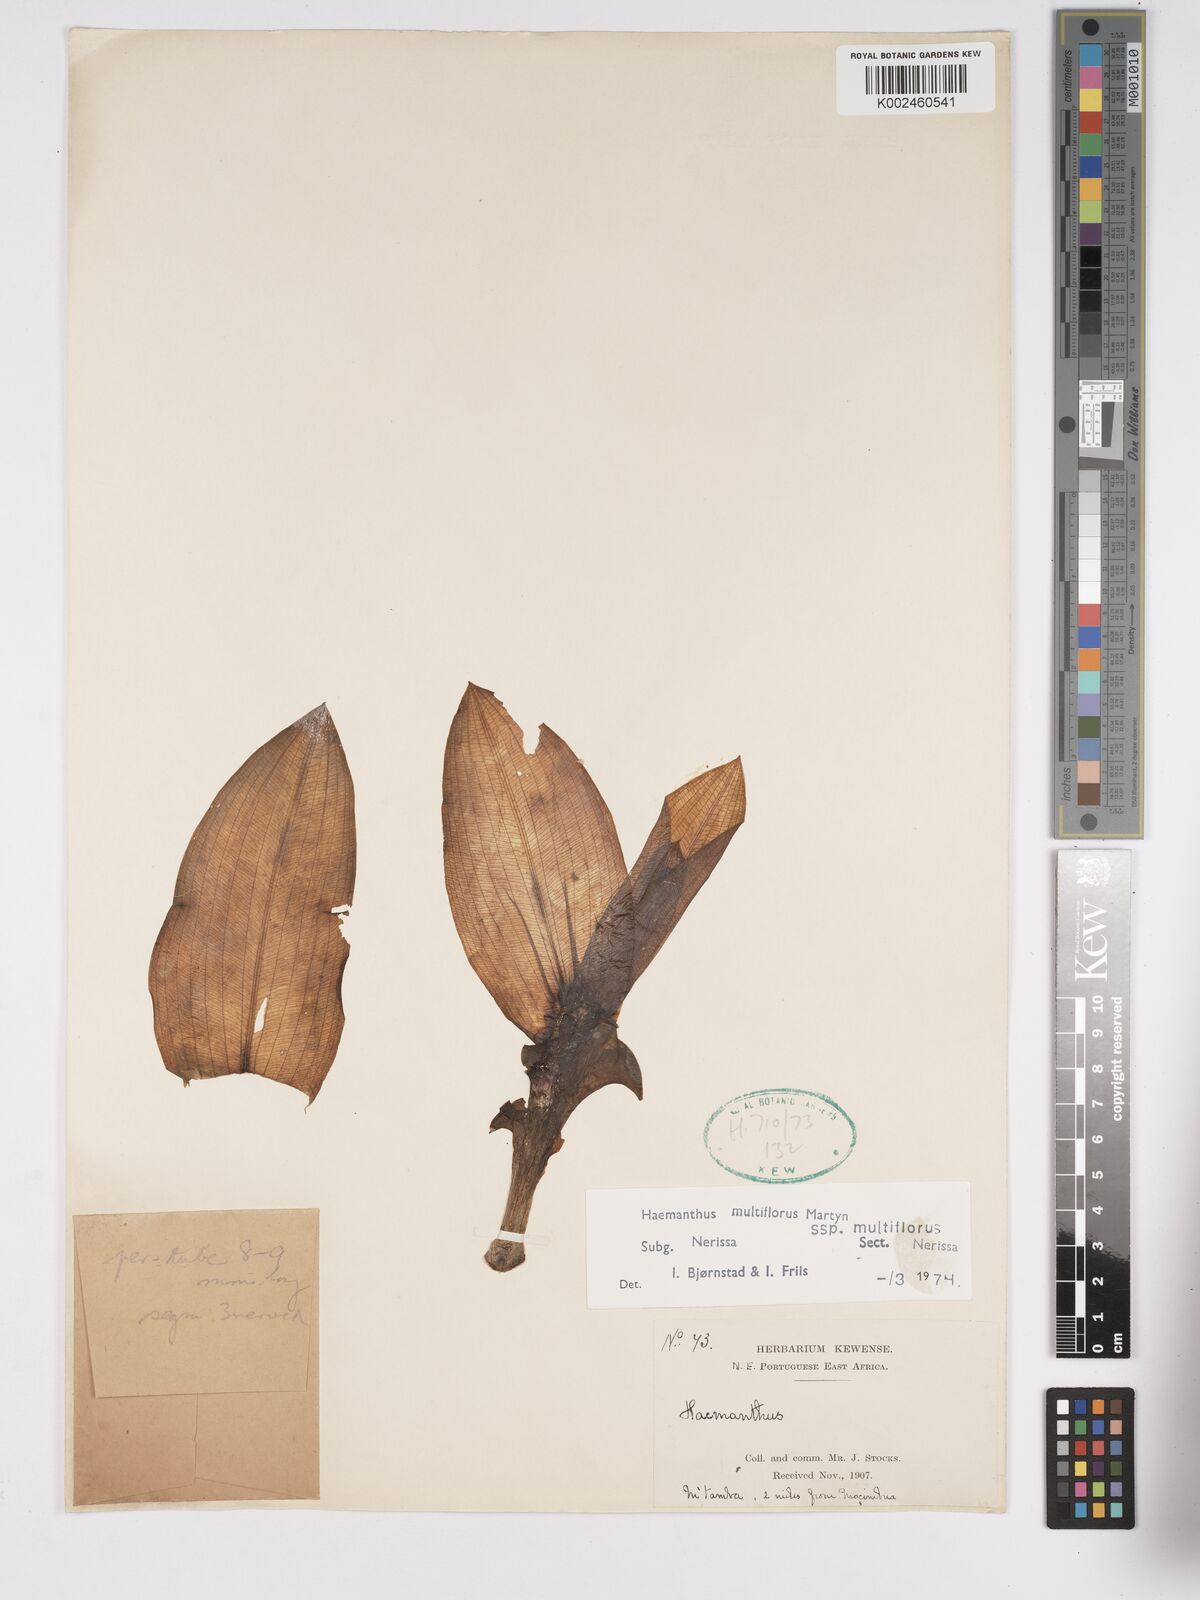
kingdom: Plantae
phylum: Tracheophyta
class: Liliopsida
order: Asparagales
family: Amaryllidaceae
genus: Scadoxus
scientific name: Scadoxus multiflorus
